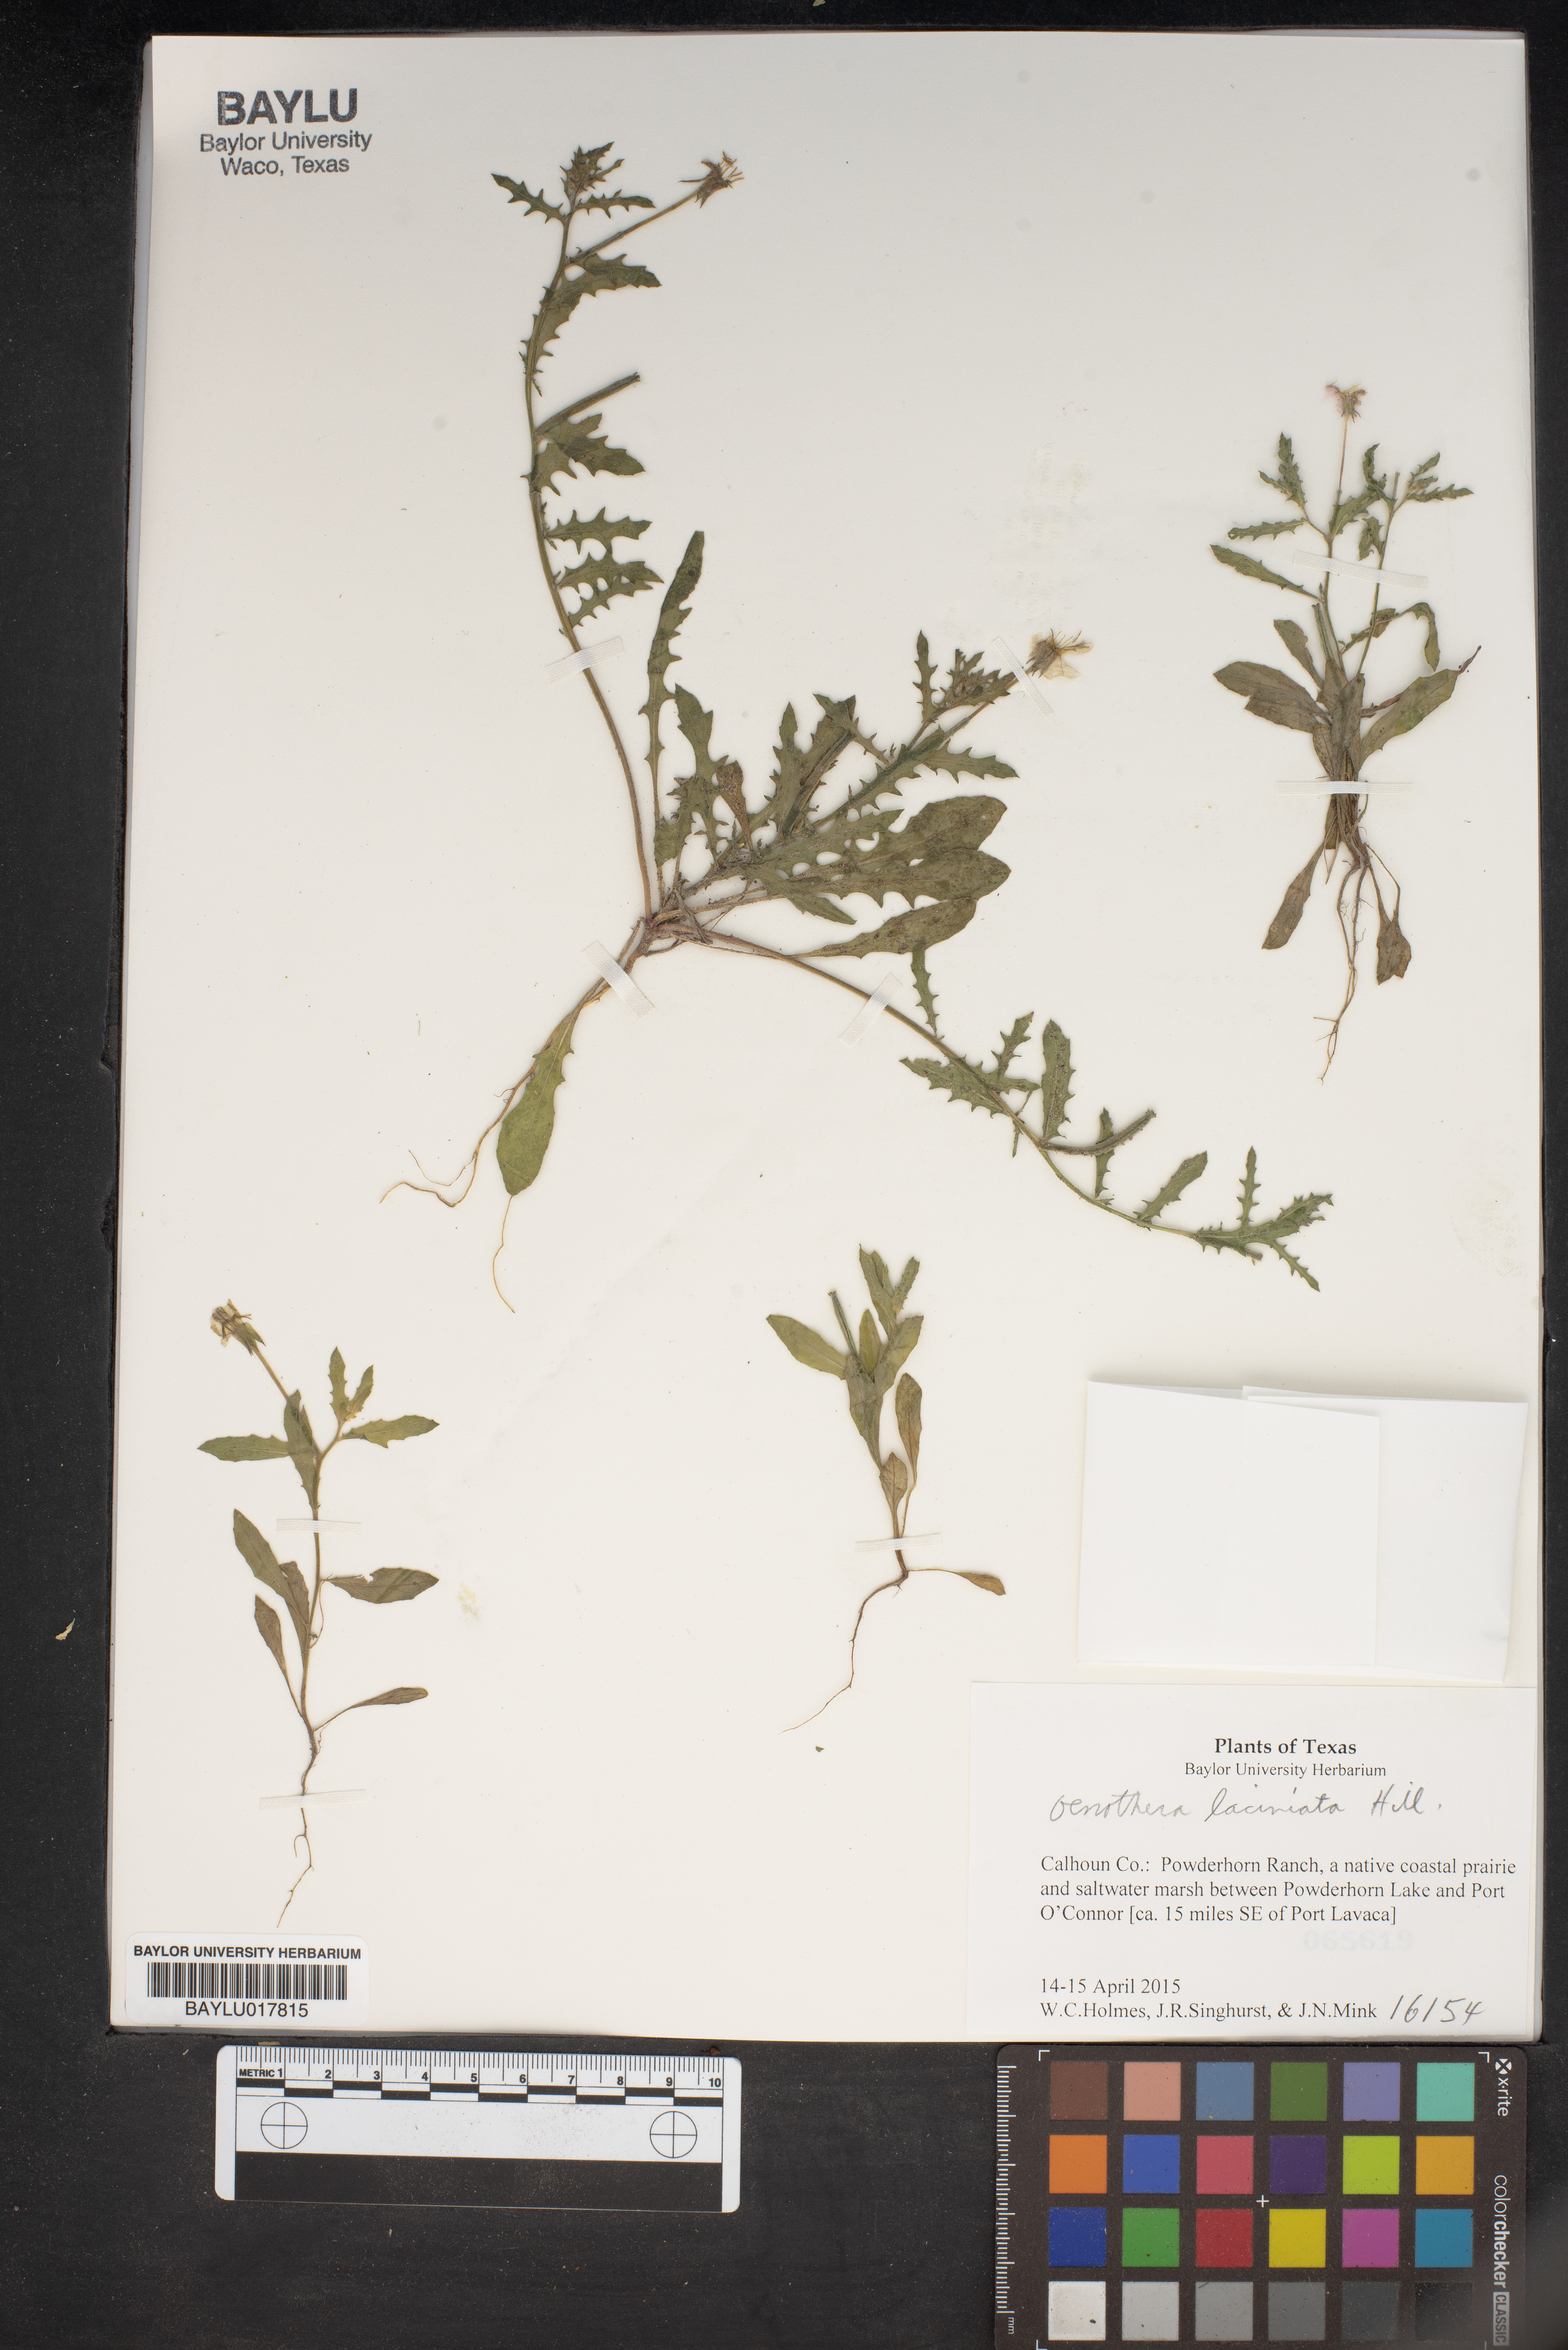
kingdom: Plantae
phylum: Tracheophyta
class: Magnoliopsida
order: Myrtales
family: Onagraceae
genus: Oenothera
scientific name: Oenothera laciniata
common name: Cut-leaved evening-primrose
